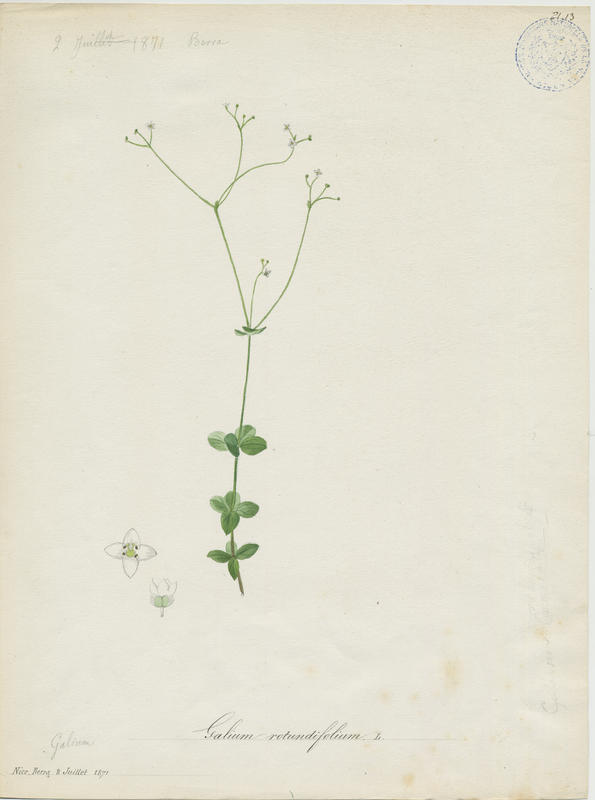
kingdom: Plantae
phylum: Tracheophyta
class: Magnoliopsida
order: Gentianales
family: Rubiaceae
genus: Galium
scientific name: Galium rotundifolium
